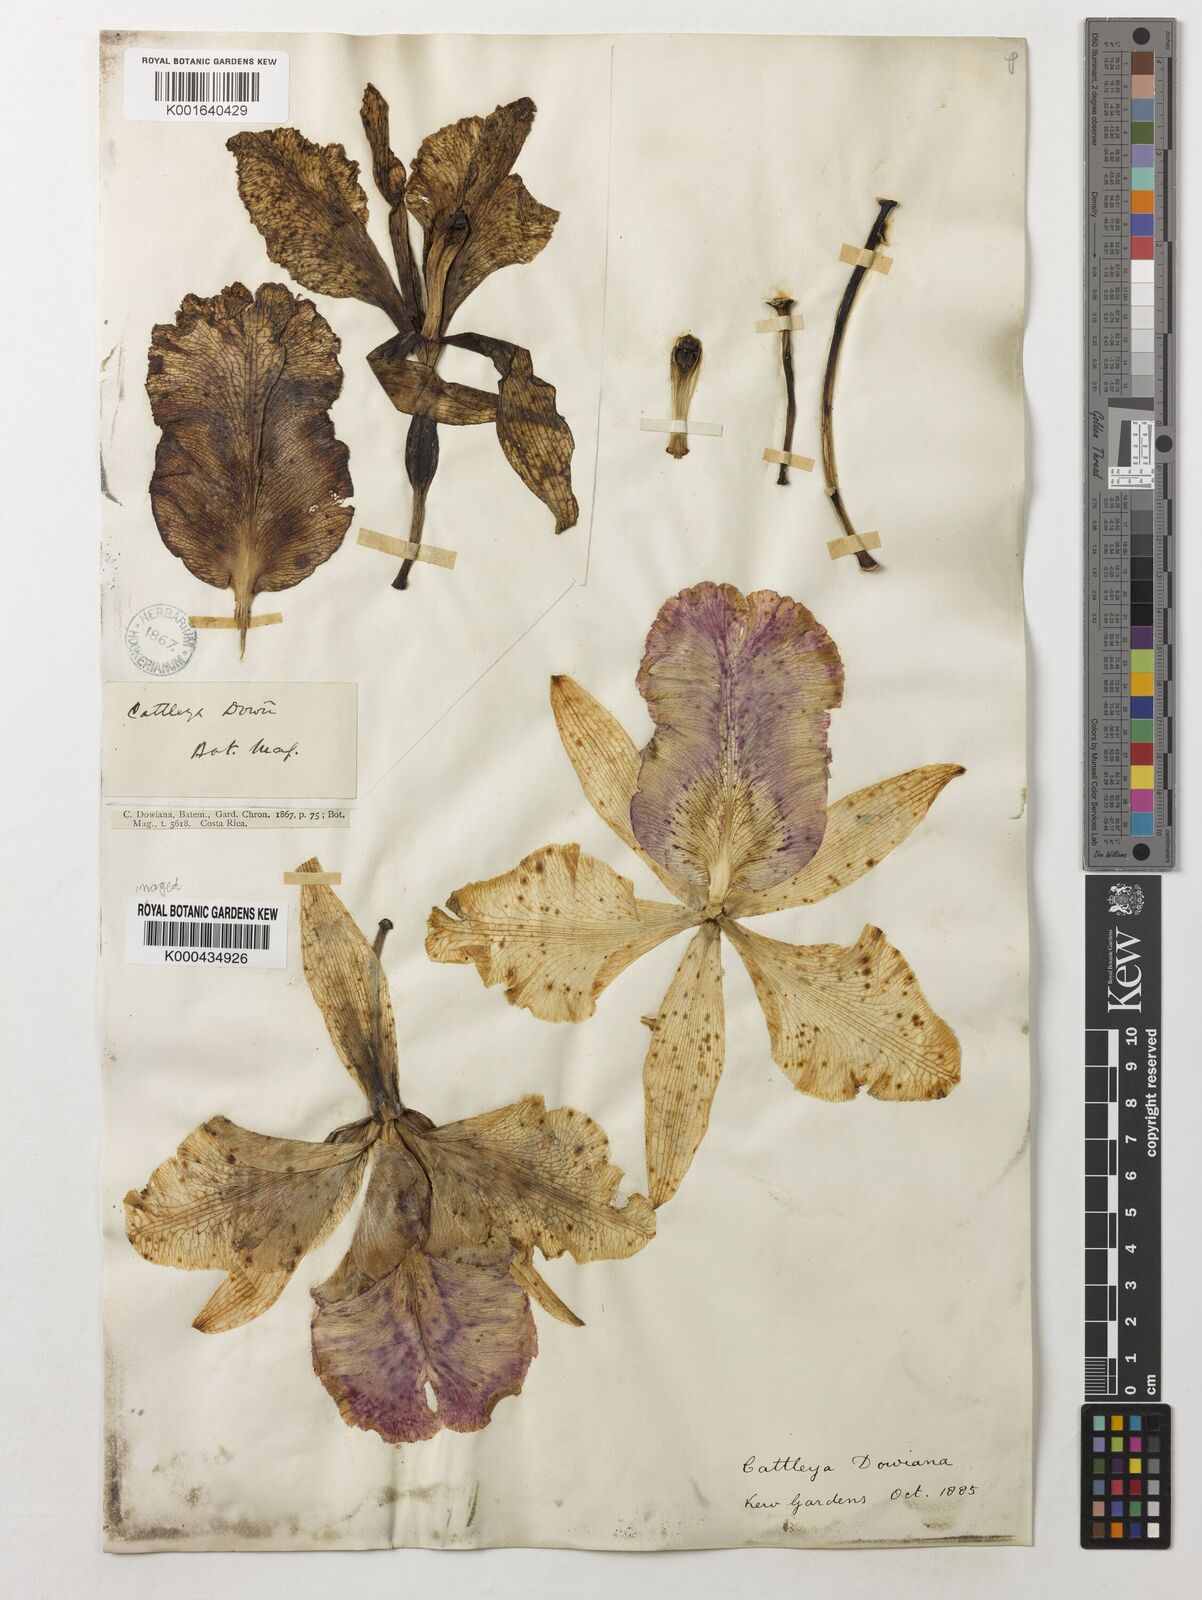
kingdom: Plantae
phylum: Tracheophyta
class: Liliopsida
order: Asparagales
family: Orchidaceae
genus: Cattleya
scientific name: Cattleya dowiana
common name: Queen cattleya
